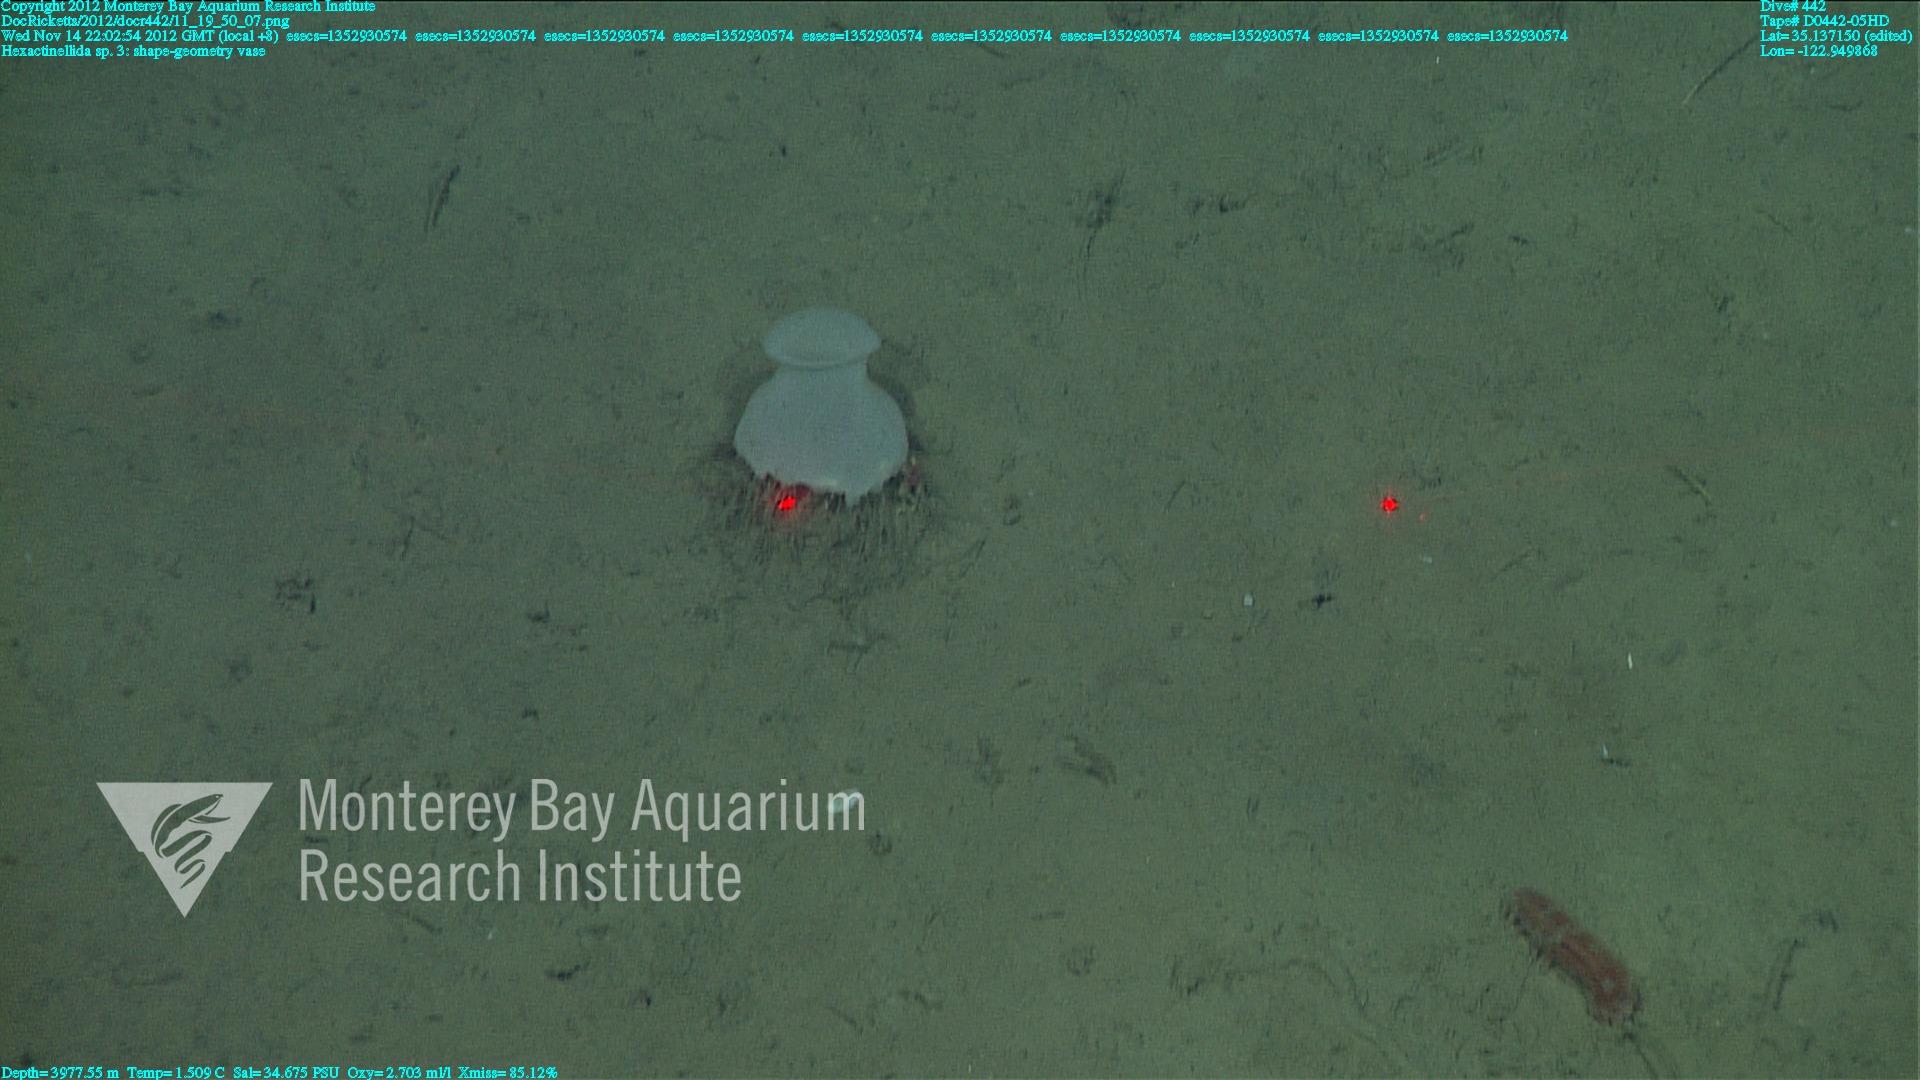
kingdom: Animalia
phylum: Porifera
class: Hexactinellida
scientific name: Hexactinellida
